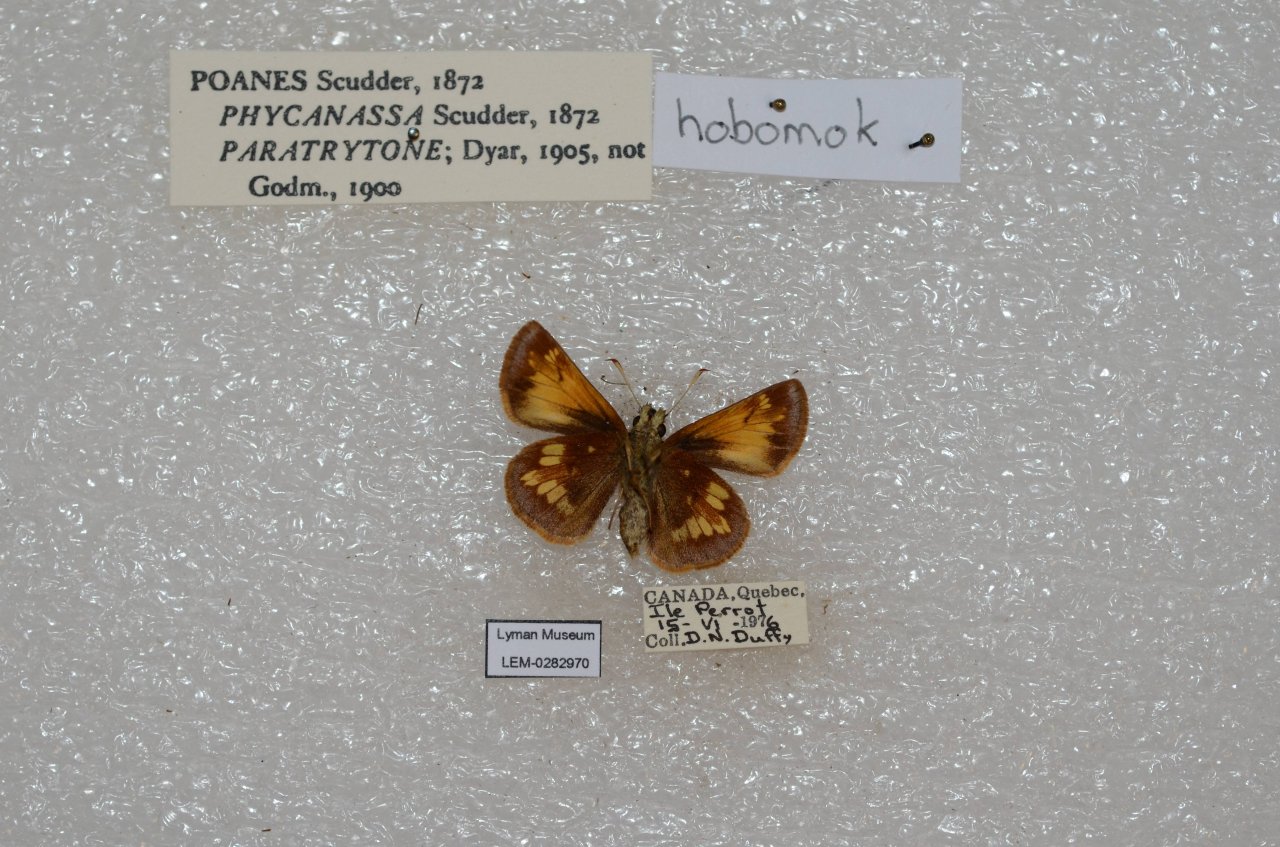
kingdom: Animalia
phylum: Arthropoda
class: Insecta
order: Lepidoptera
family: Hesperiidae
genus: Lon
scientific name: Lon hobomok
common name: Hobomok Skipper
